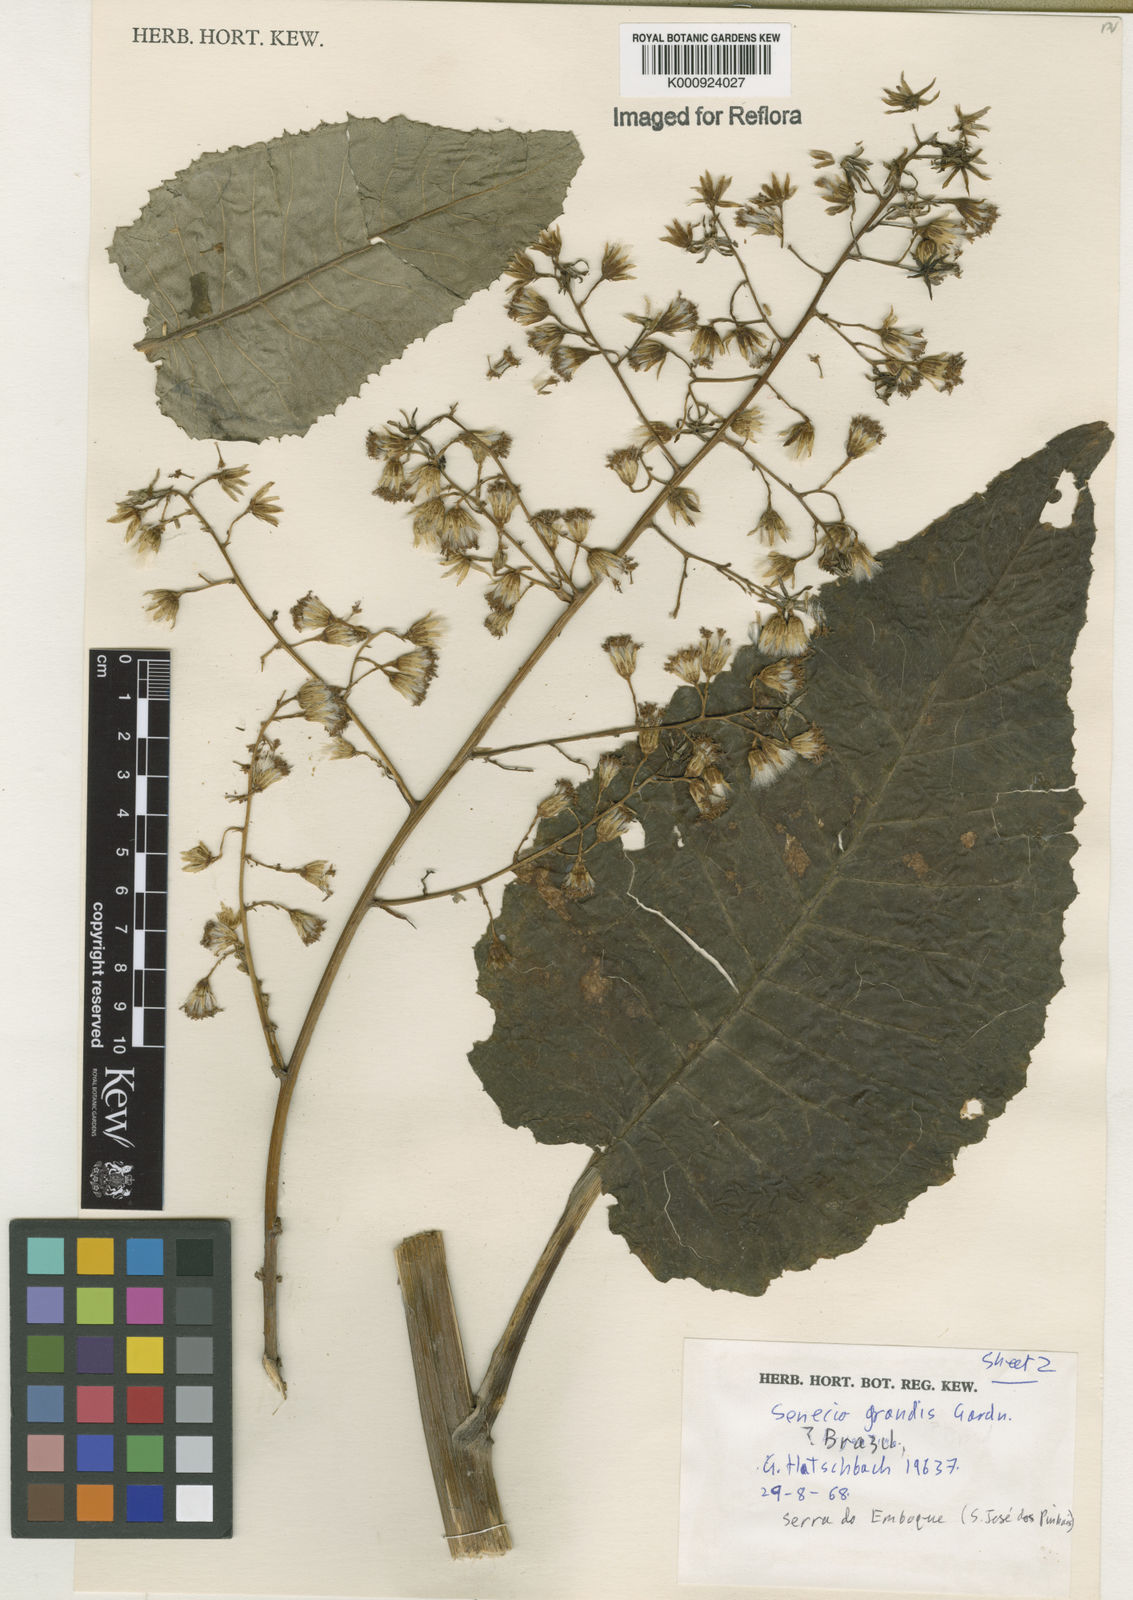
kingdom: Plantae
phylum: Tracheophyta
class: Magnoliopsida
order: Asterales
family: Asteraceae
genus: Senecio
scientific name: Senecio grandis
